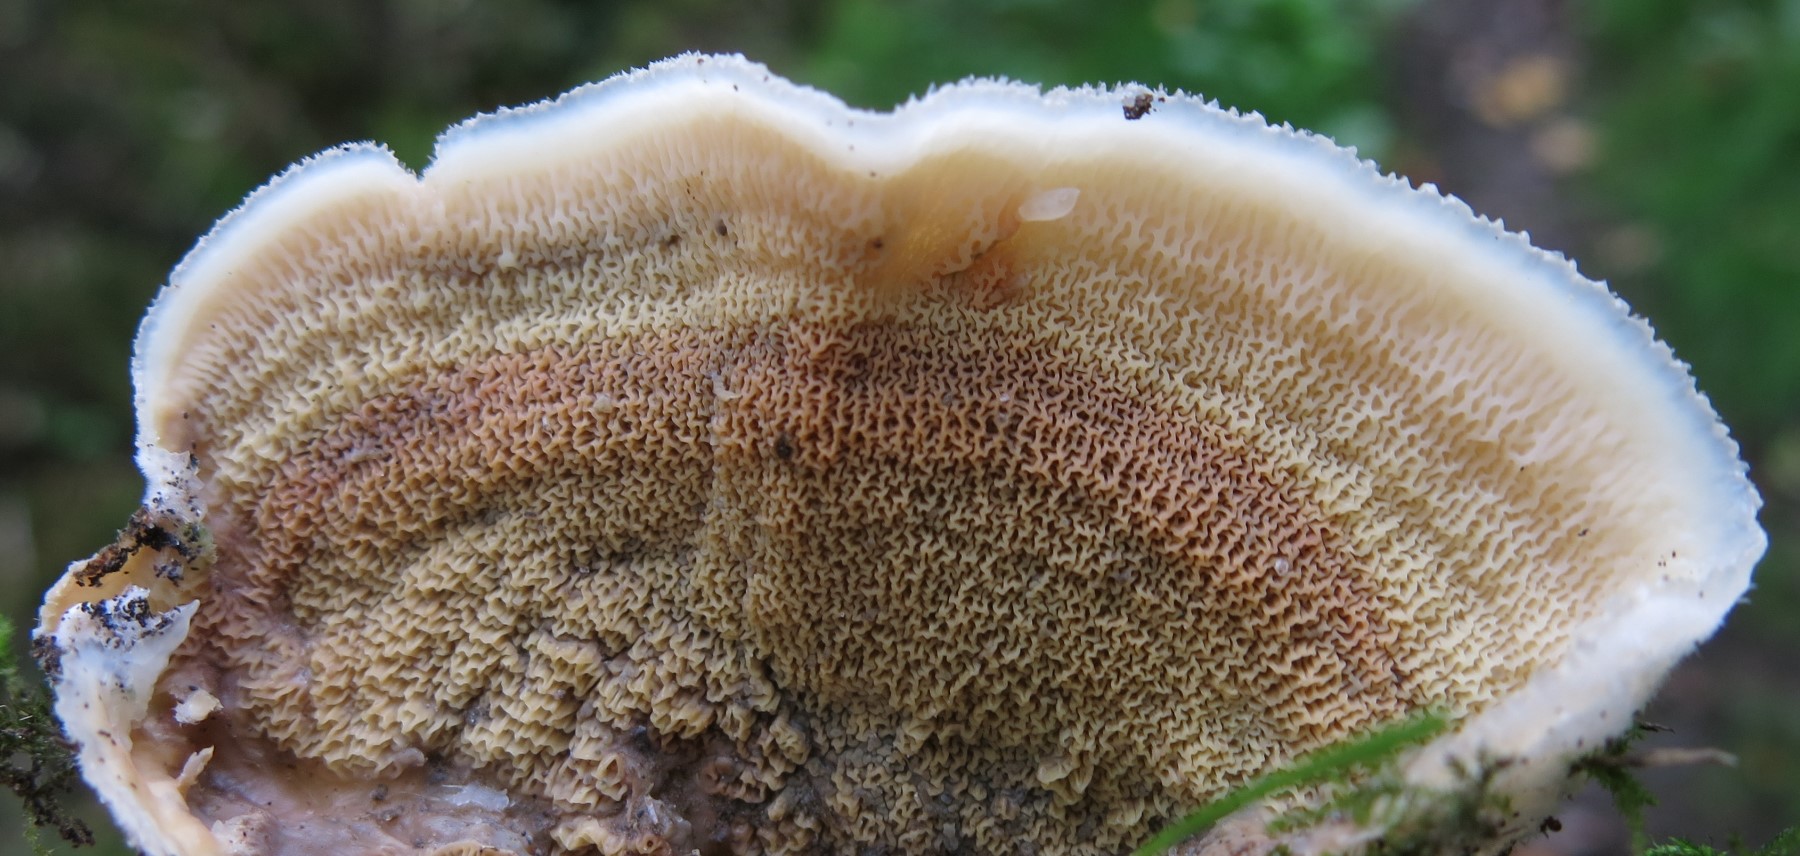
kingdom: Fungi
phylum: Basidiomycota
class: Agaricomycetes
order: Polyporales
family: Meruliaceae
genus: Phlebia
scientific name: Phlebia tremellosa
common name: bævrende åresvamp
